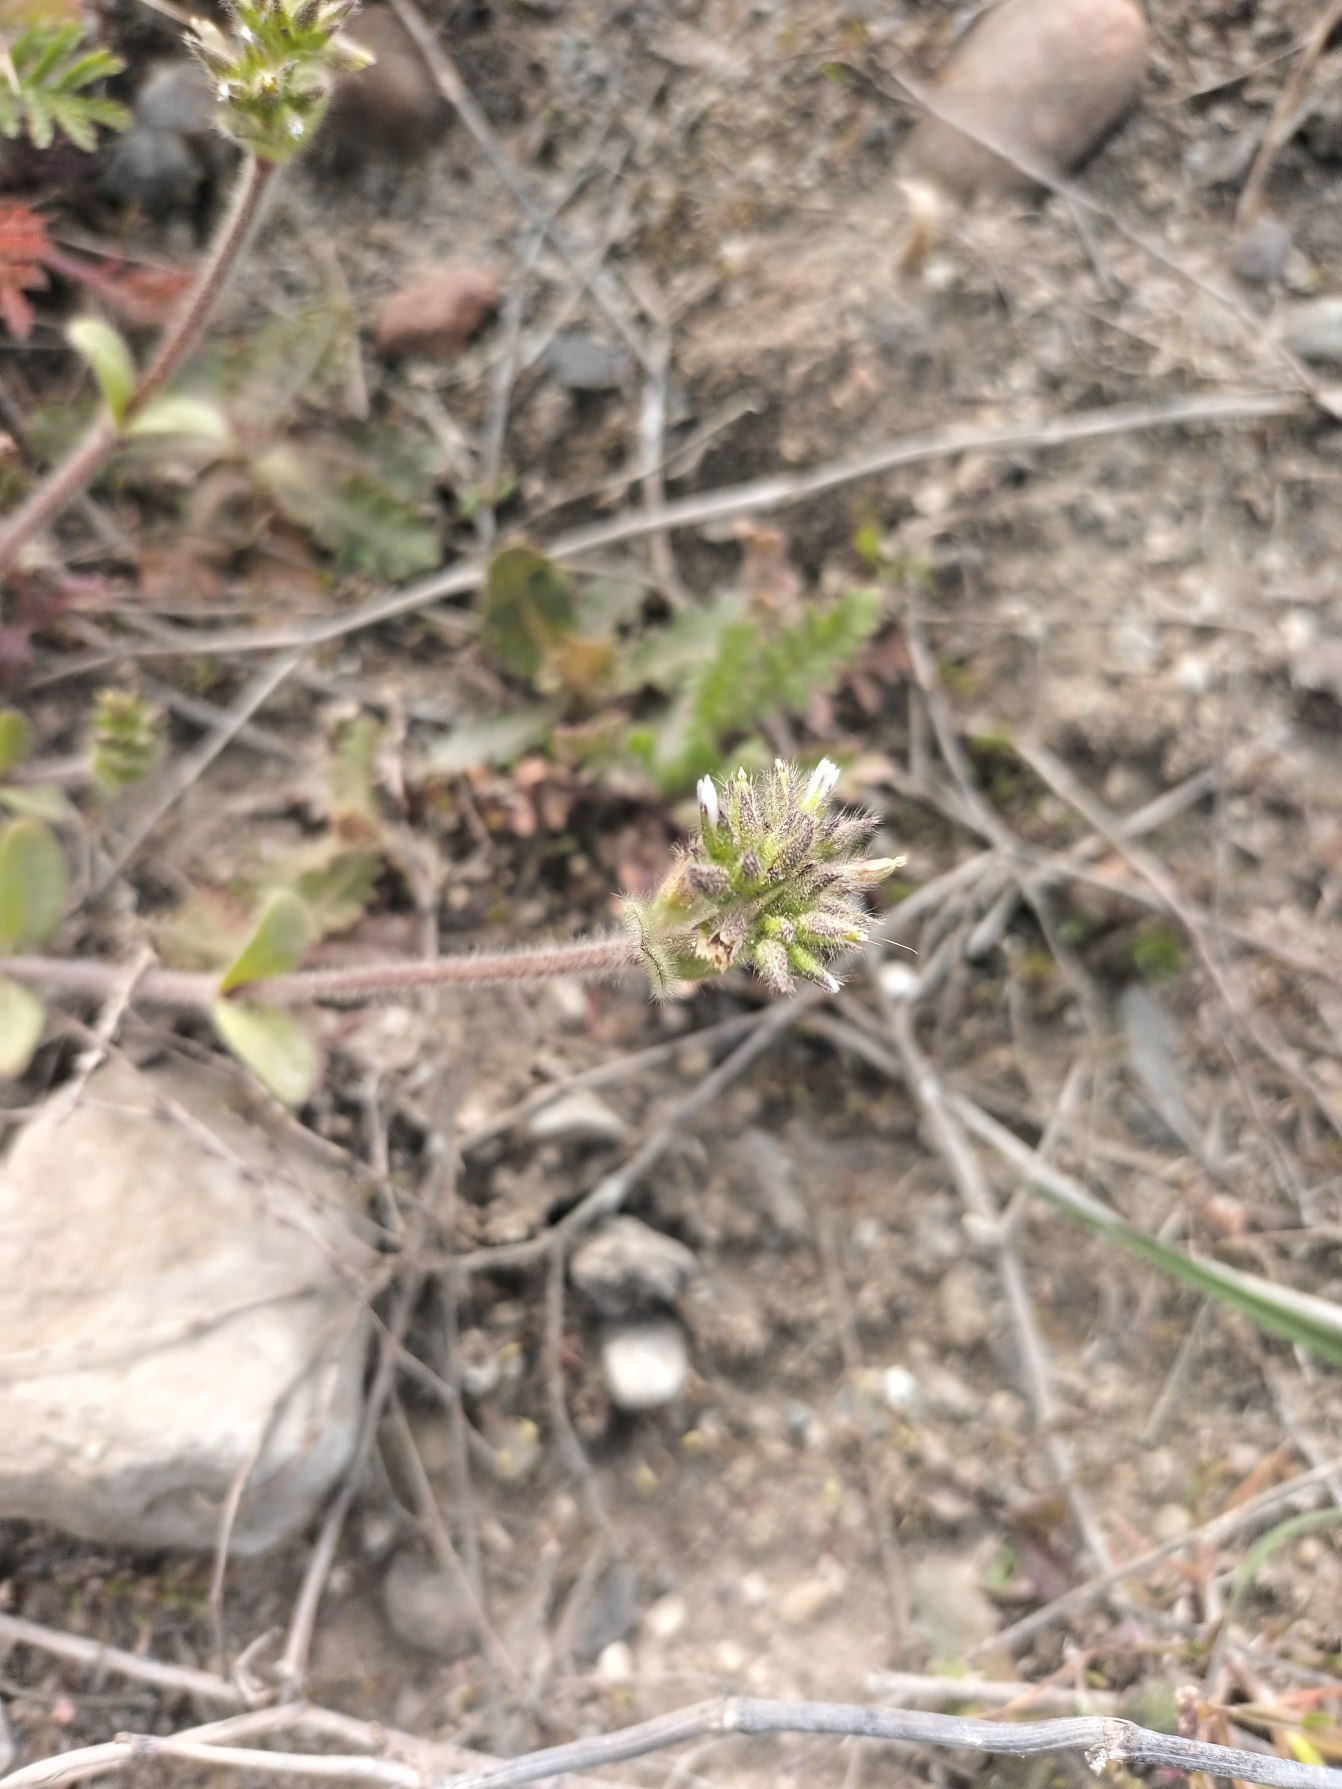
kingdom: Plantae
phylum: Tracheophyta
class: Magnoliopsida
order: Caryophyllales
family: Caryophyllaceae
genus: Cerastium
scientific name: Cerastium glomeratum
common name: Opret hønsetarm
